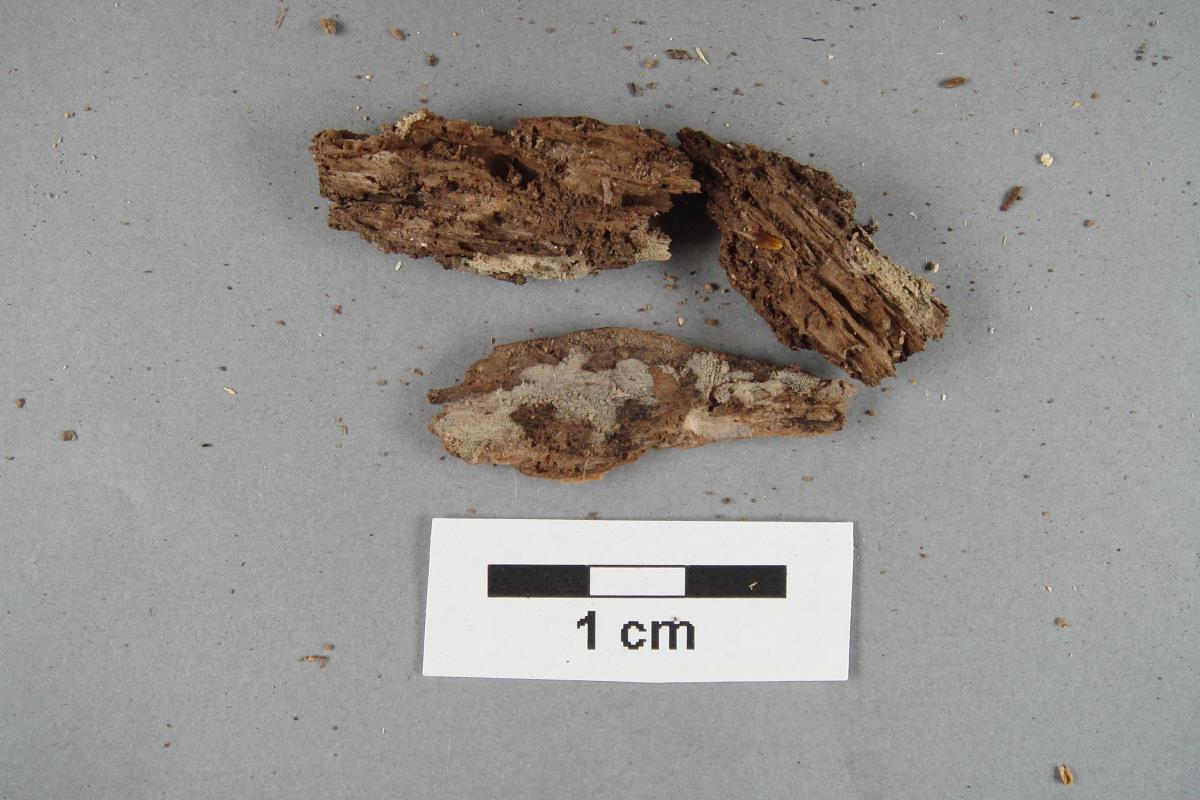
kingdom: Fungi
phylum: Basidiomycota
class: Agaricomycetes
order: Polyporales
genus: Phlebiella
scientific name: Phlebiella
